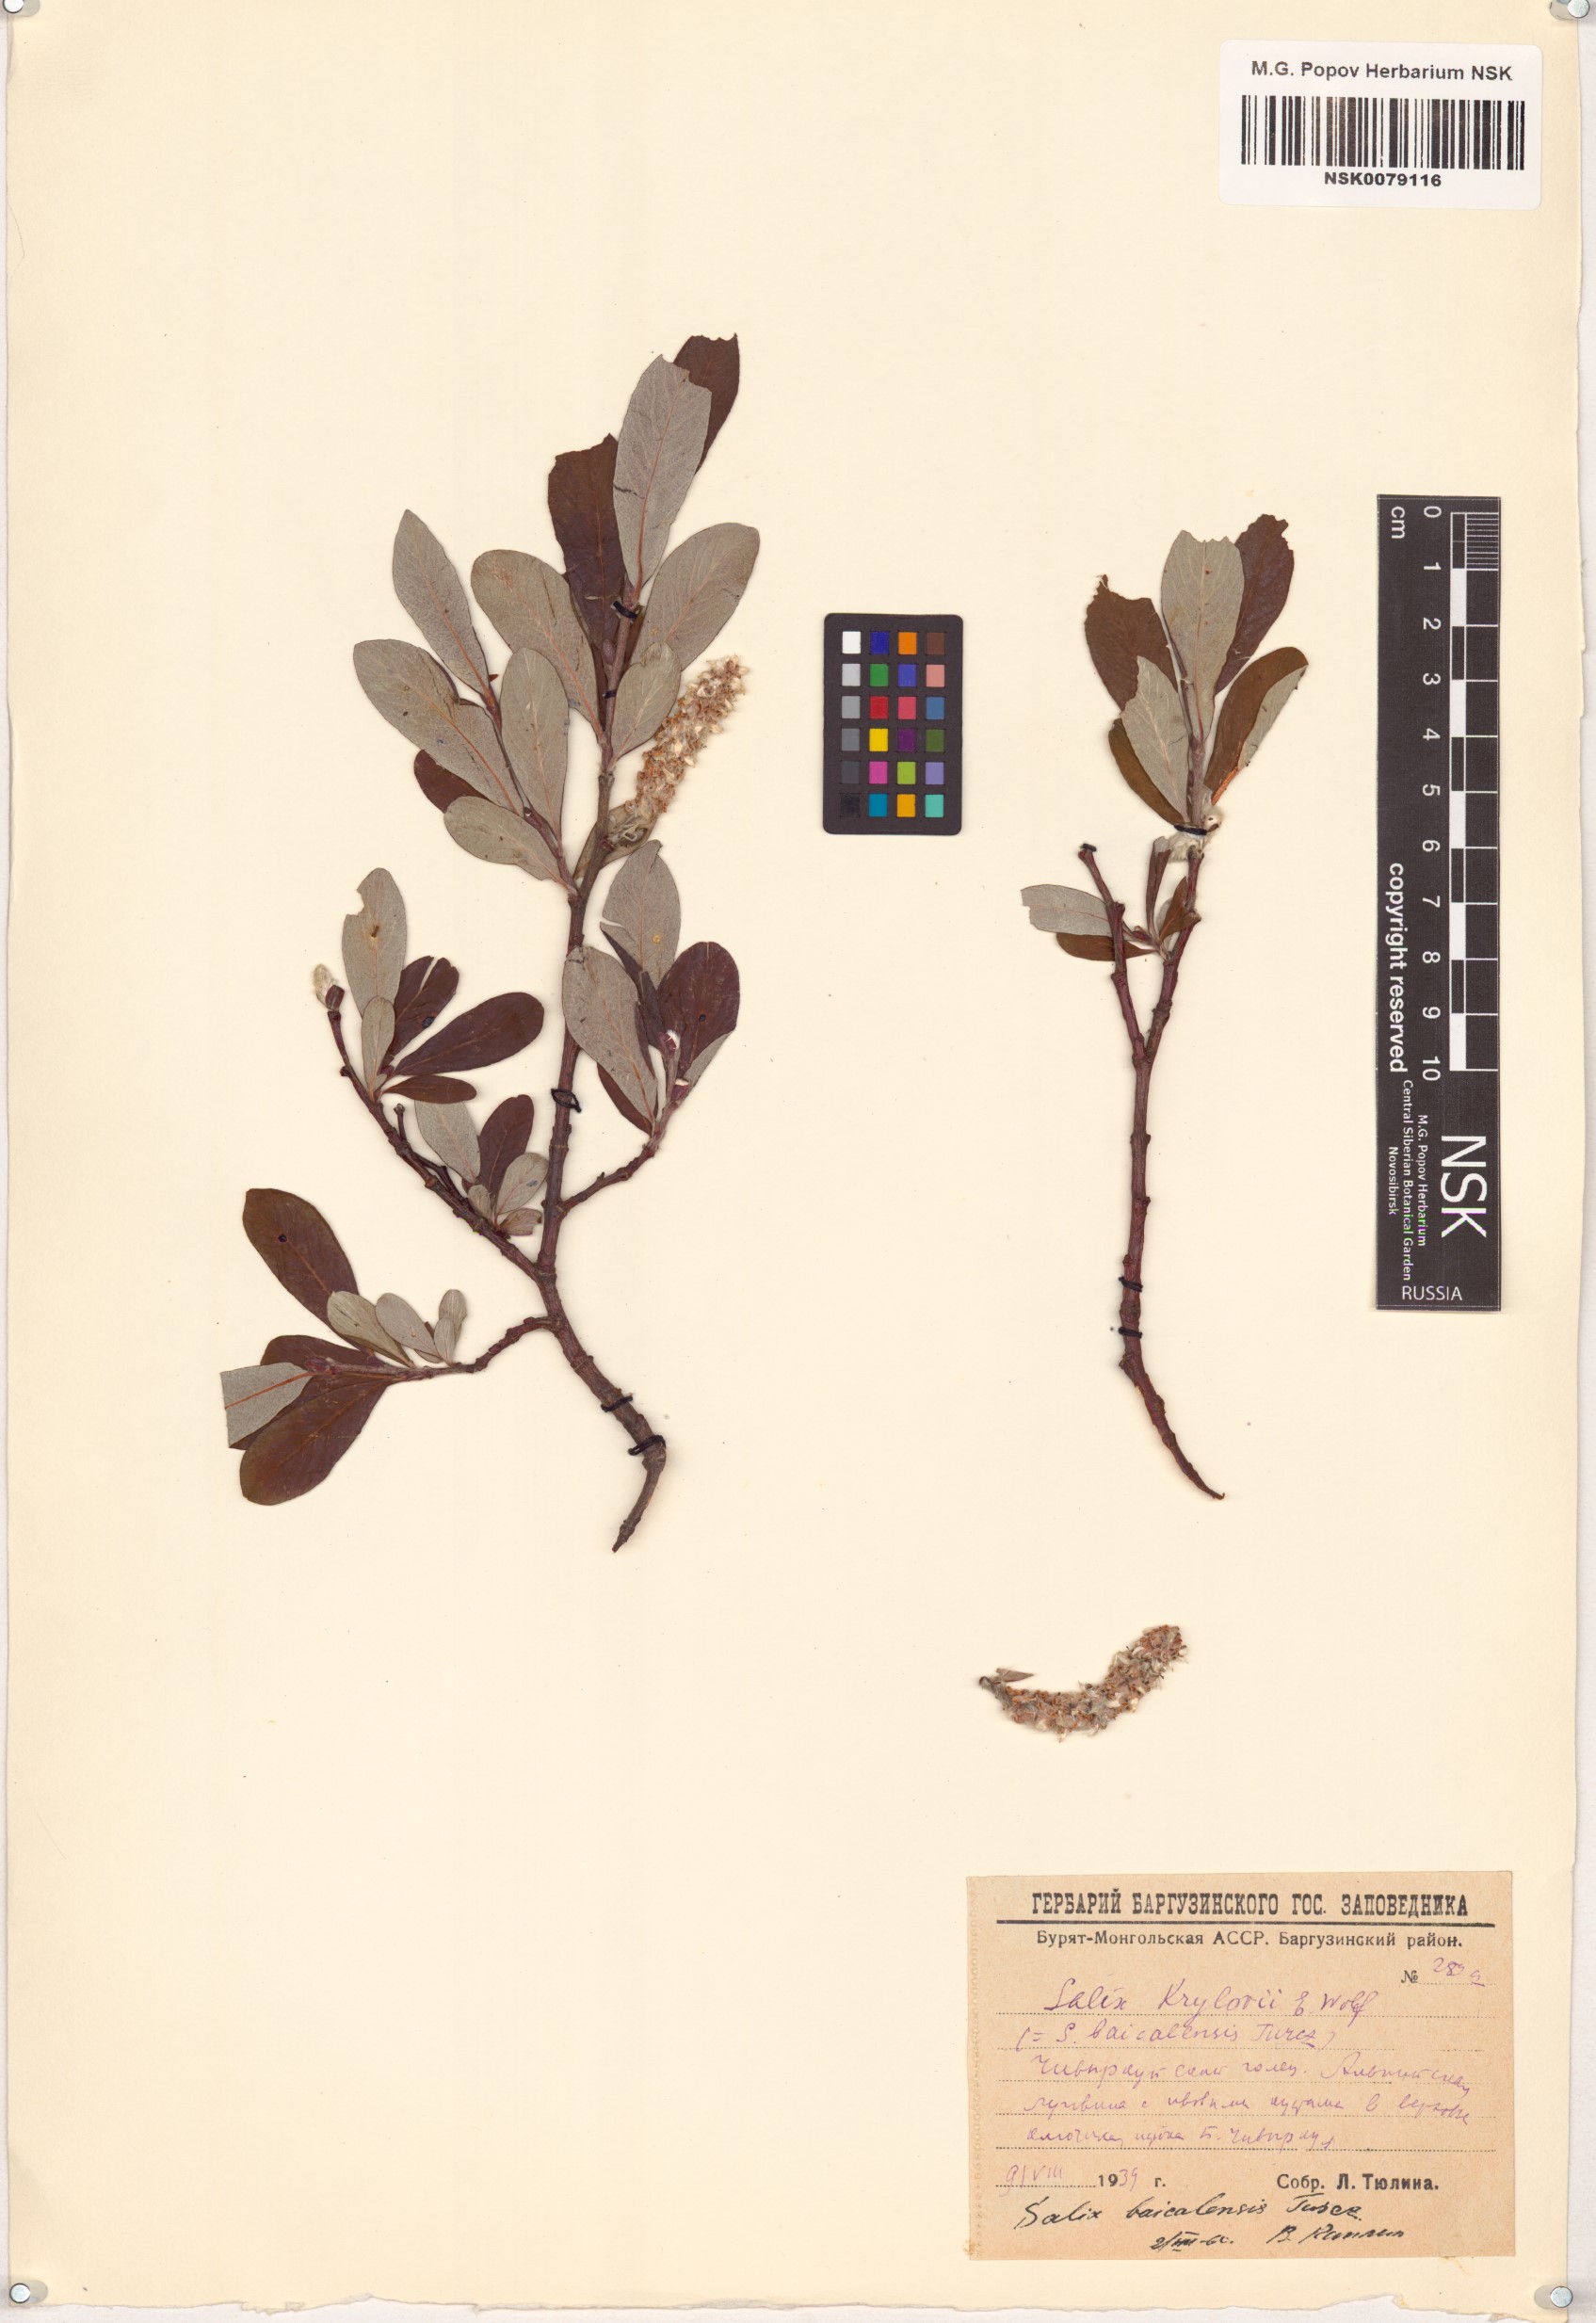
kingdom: Plantae
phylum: Tracheophyta
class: Magnoliopsida
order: Malpighiales
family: Salicaceae
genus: Salix
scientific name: Salix krylovii
